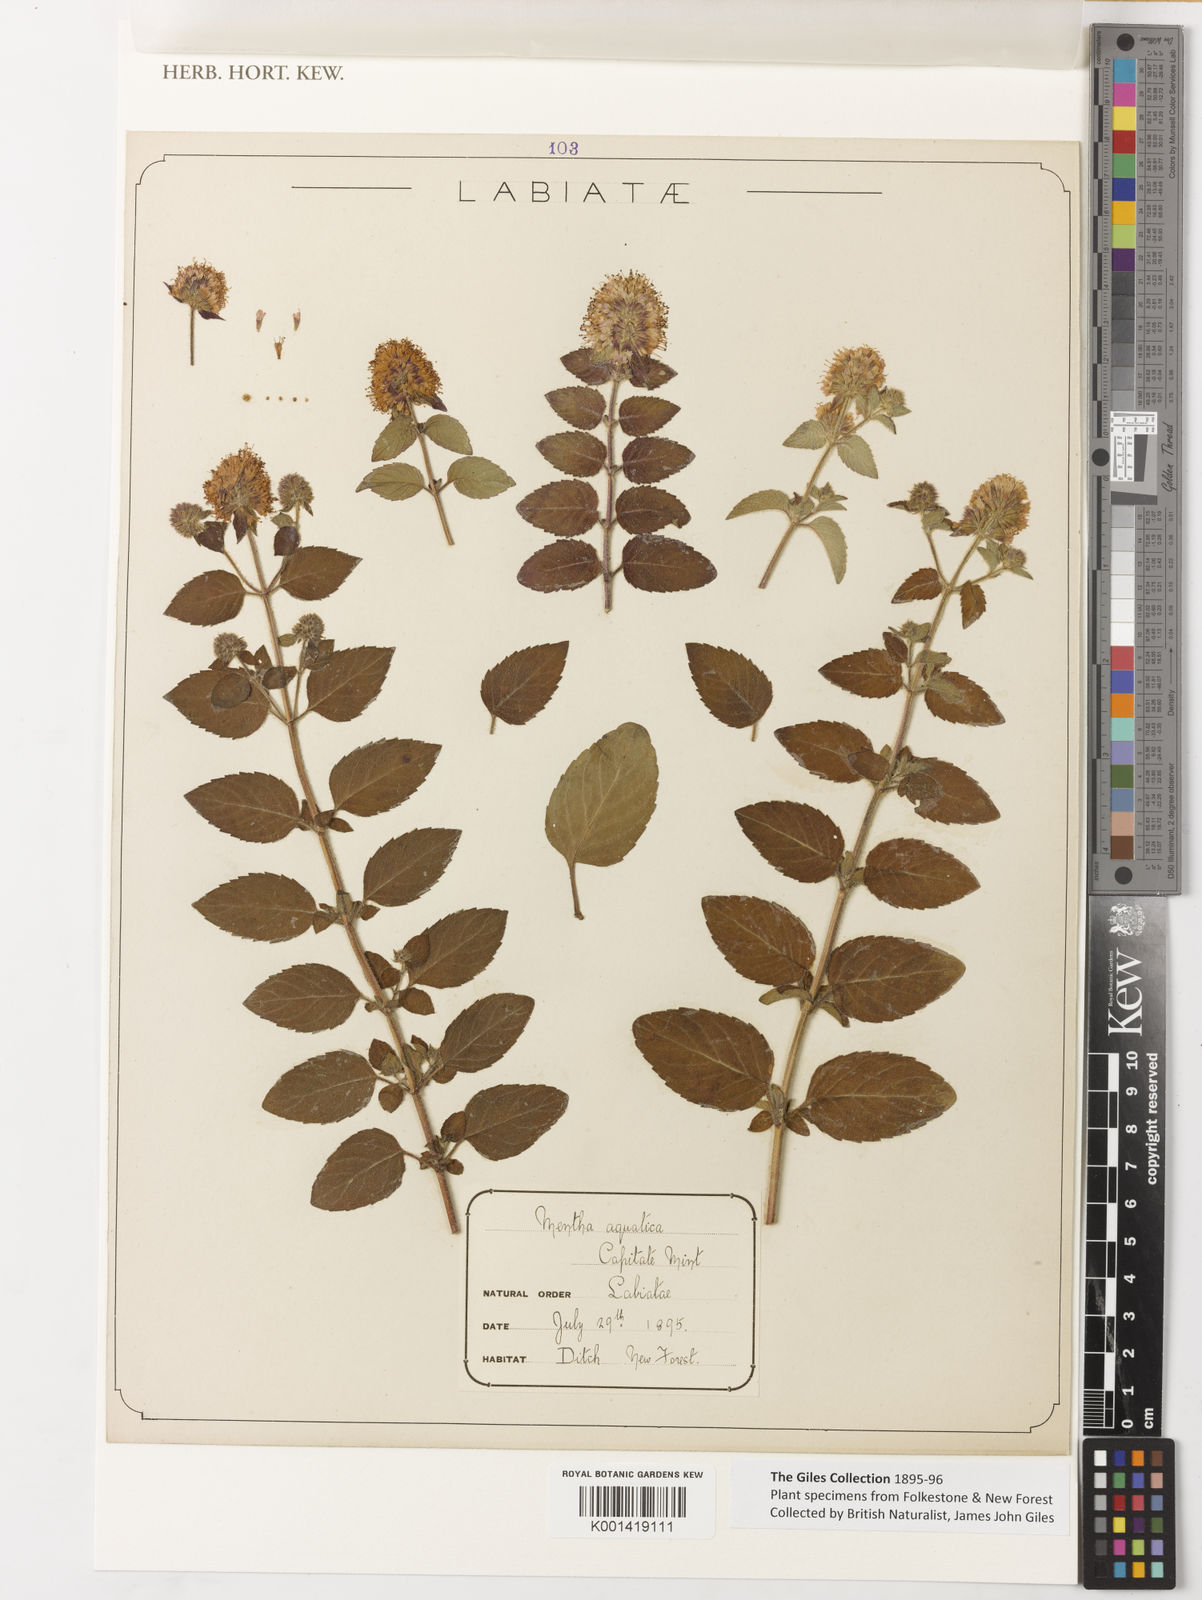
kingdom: Plantae
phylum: Tracheophyta
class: Magnoliopsida
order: Lamiales
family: Lamiaceae
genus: Mentha
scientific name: Mentha aquatica
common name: Water mint
